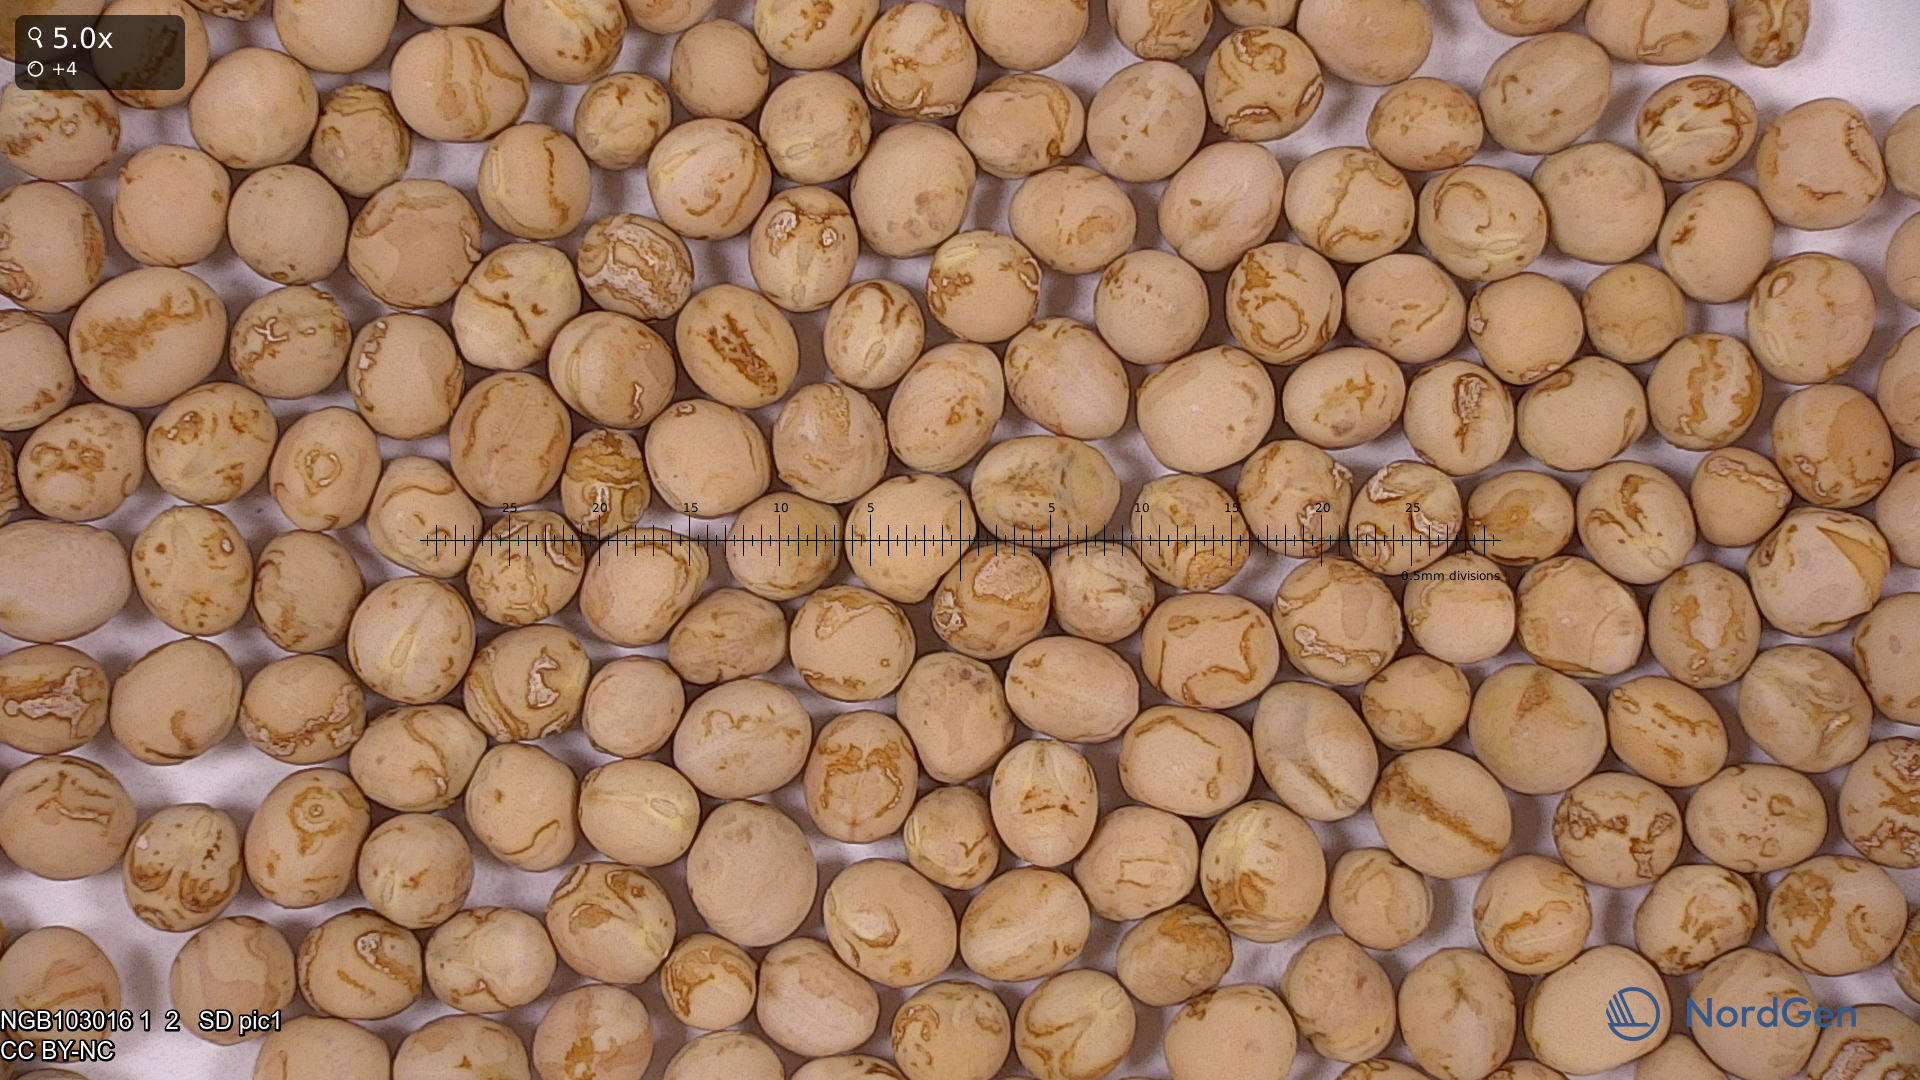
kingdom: Plantae
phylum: Tracheophyta
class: Magnoliopsida
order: Fabales
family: Fabaceae
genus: Lathyrus
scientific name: Lathyrus oleraceus
